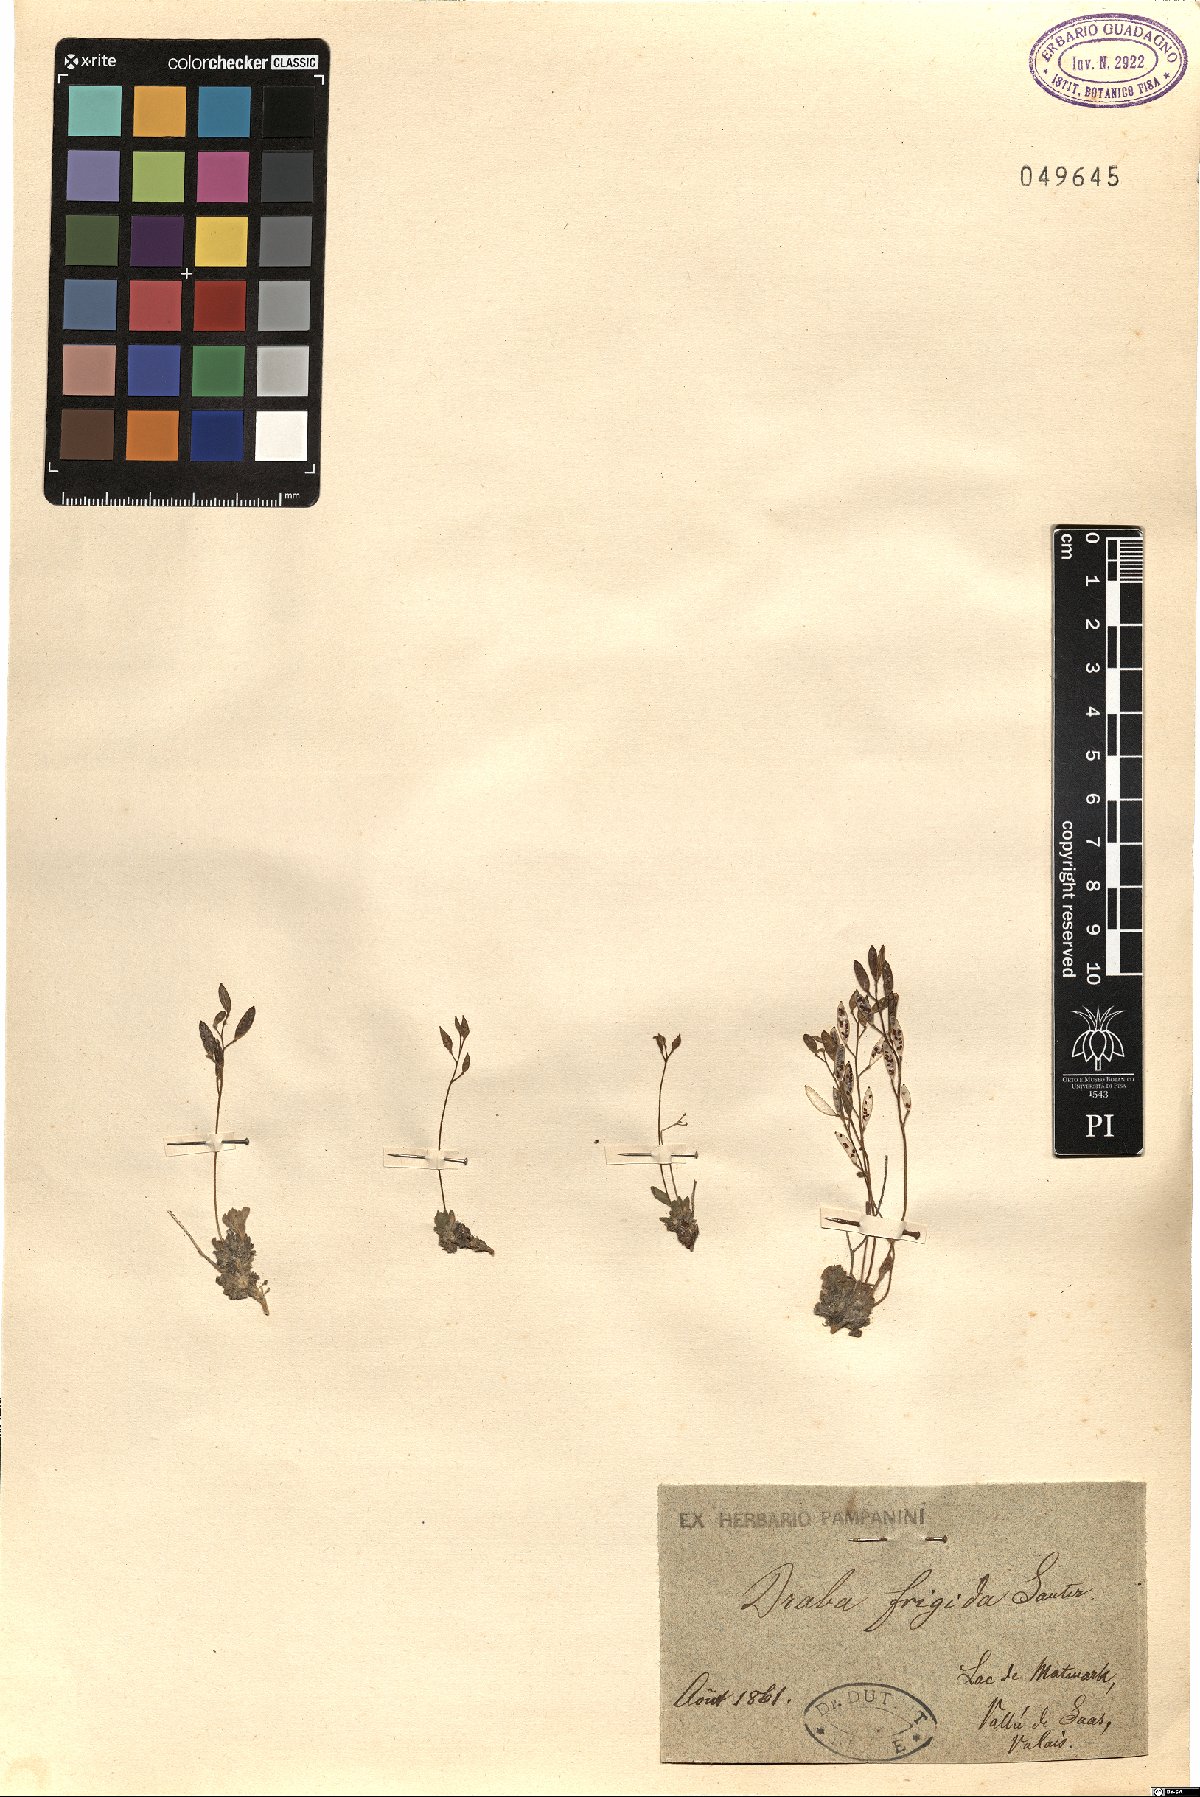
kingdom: Plantae
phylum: Tracheophyta
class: Magnoliopsida
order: Brassicales
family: Brassicaceae
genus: Draba
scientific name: Draba dubia
